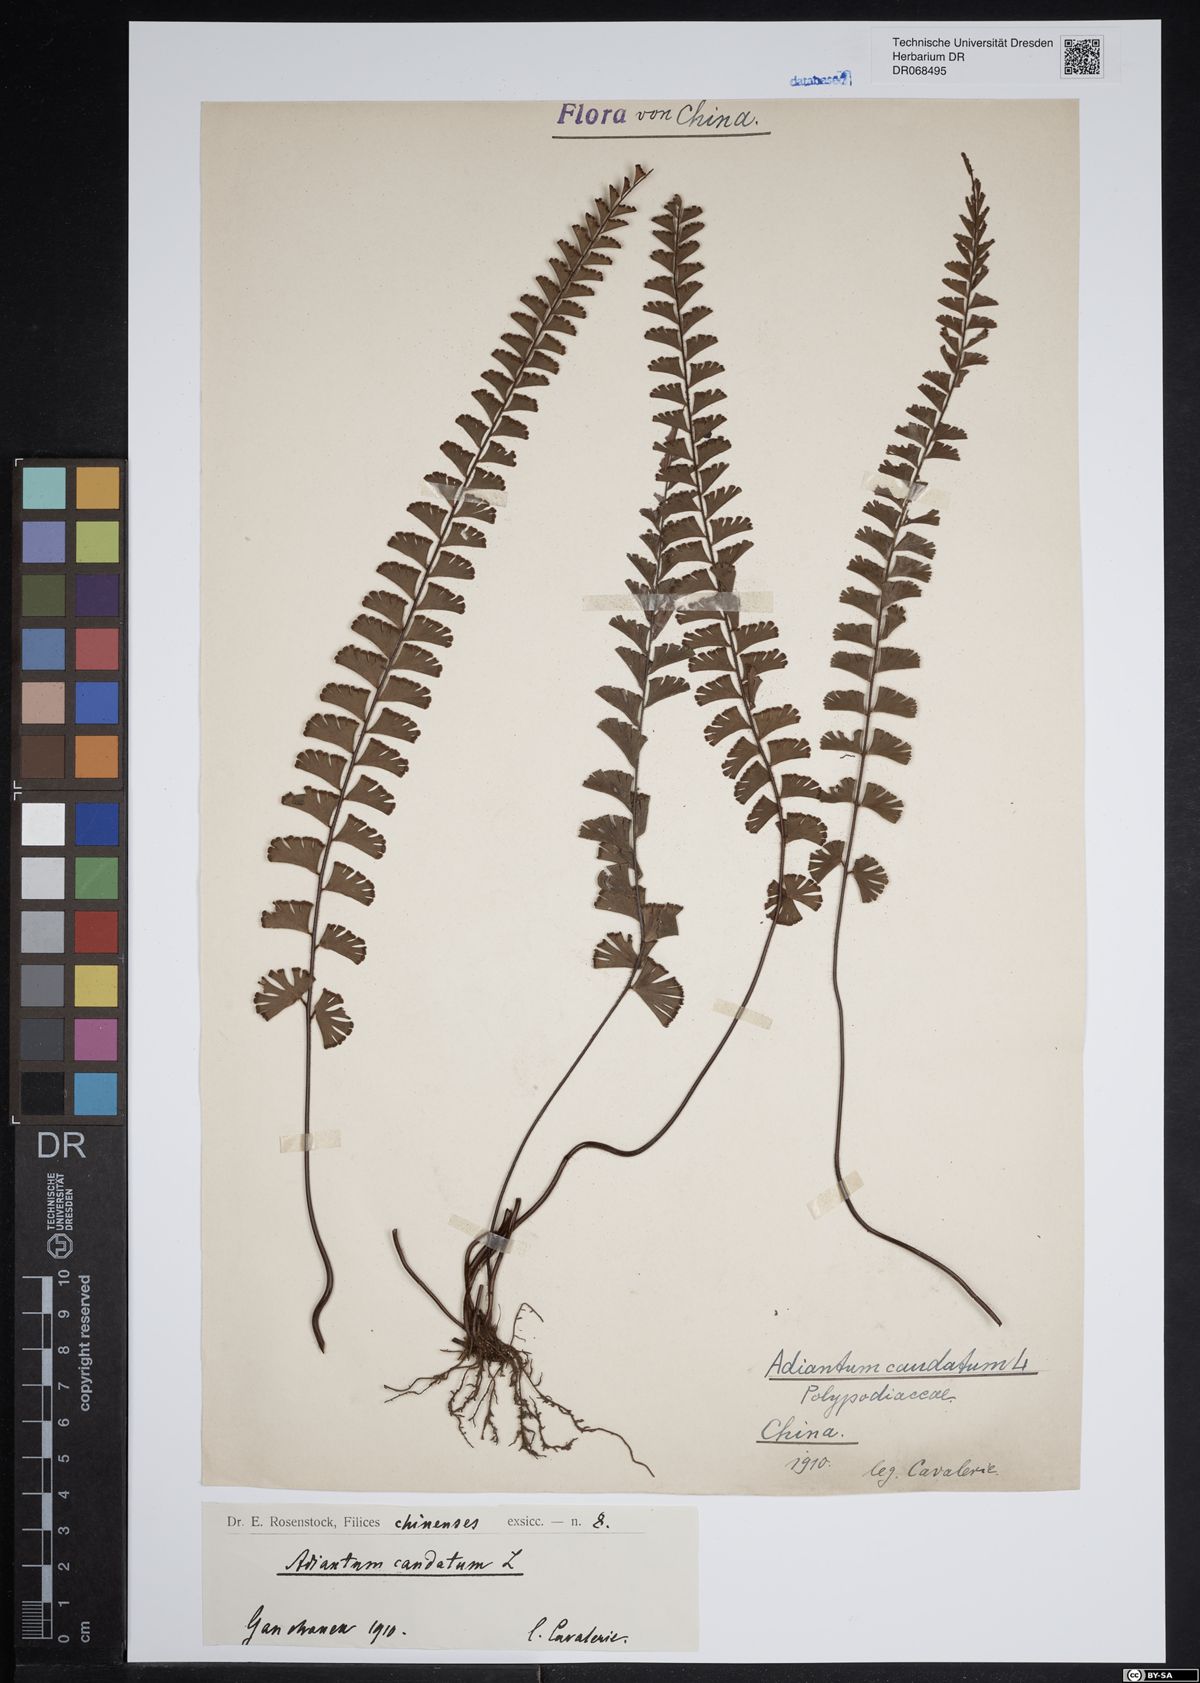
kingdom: Plantae
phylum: Tracheophyta
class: Polypodiopsida
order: Polypodiales
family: Pteridaceae
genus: Adiantum
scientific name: Adiantum caudatum
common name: Tailed maidenhair
